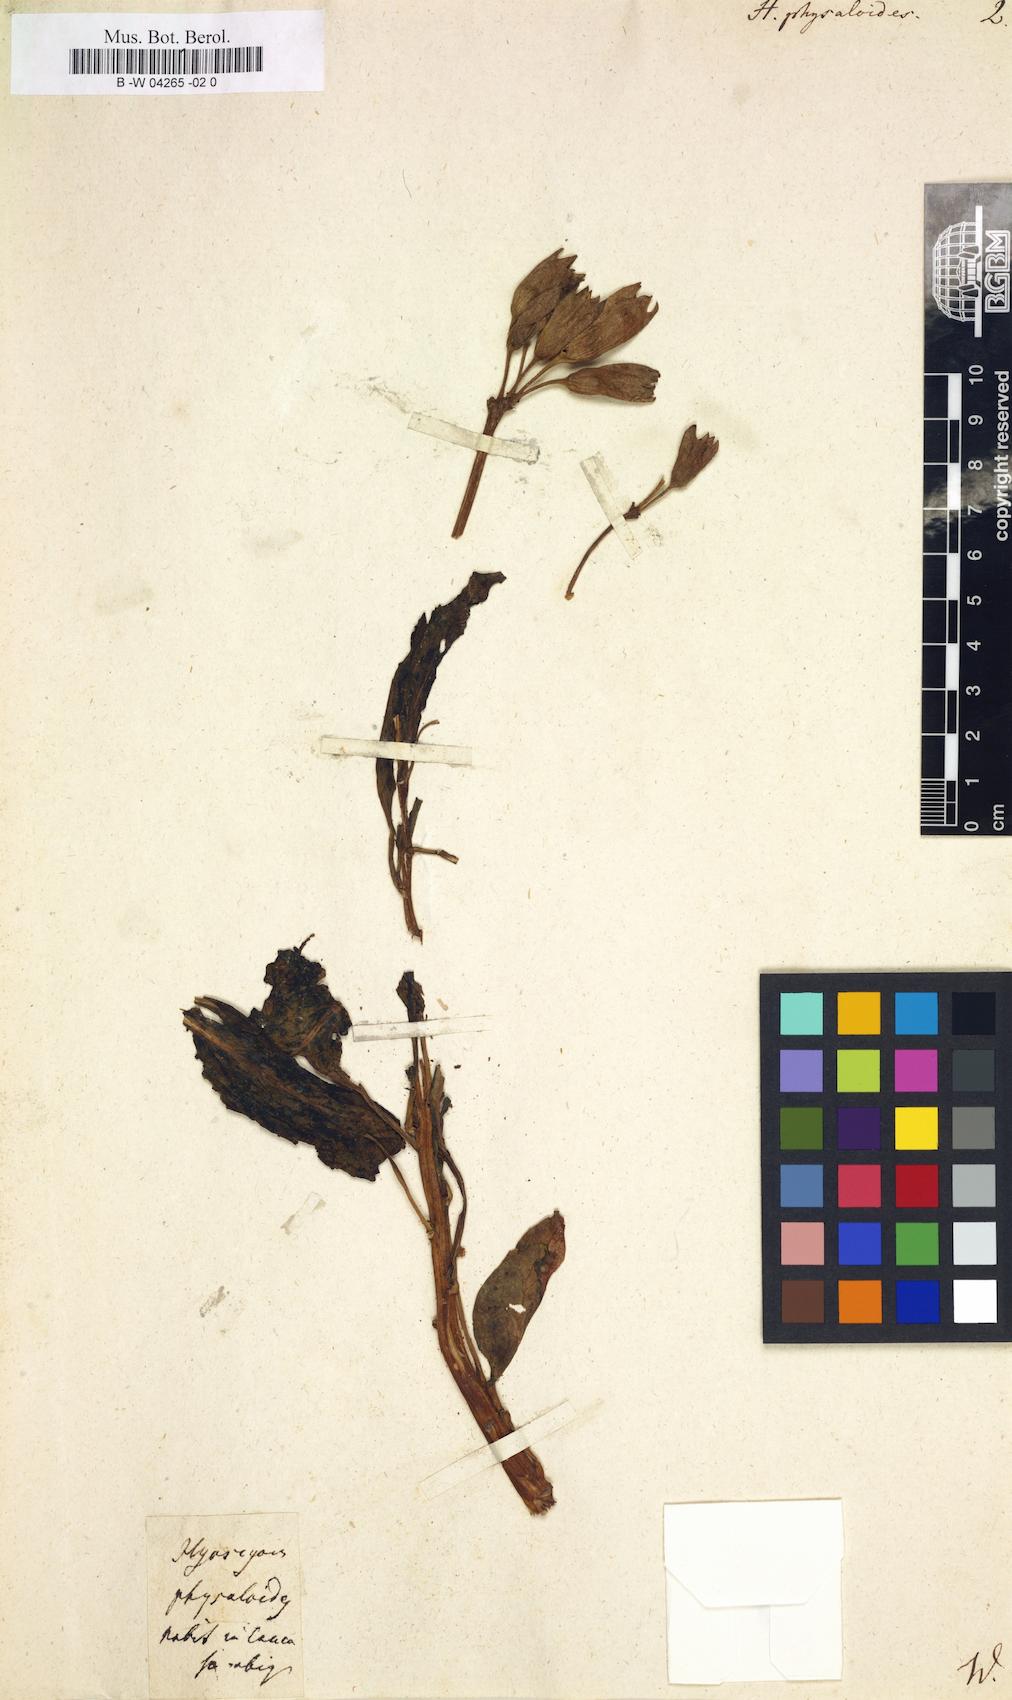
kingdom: Plantae
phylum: Tracheophyta
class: Magnoliopsida
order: Solanales
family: Solanaceae
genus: Physochlaina
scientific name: Physochlaina physaloides
